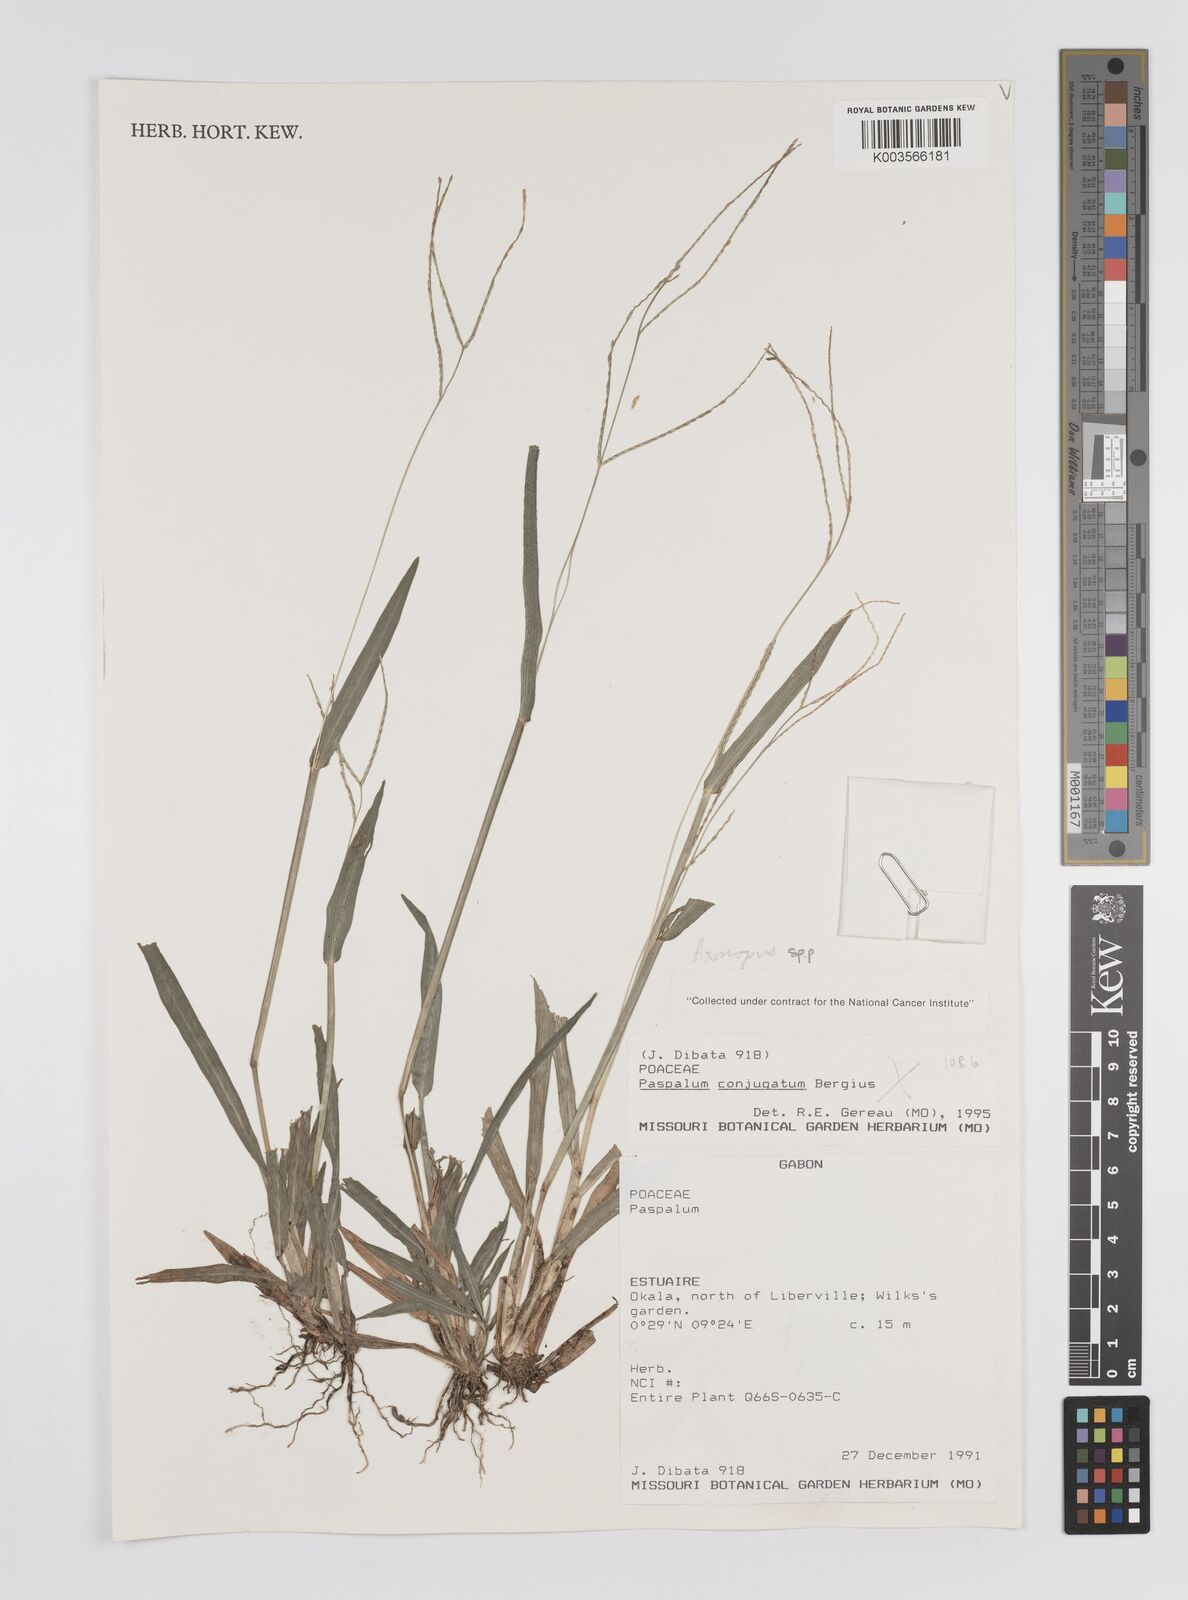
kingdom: Plantae
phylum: Tracheophyta
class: Liliopsida
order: Poales
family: Poaceae
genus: Axonopus
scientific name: Axonopus
